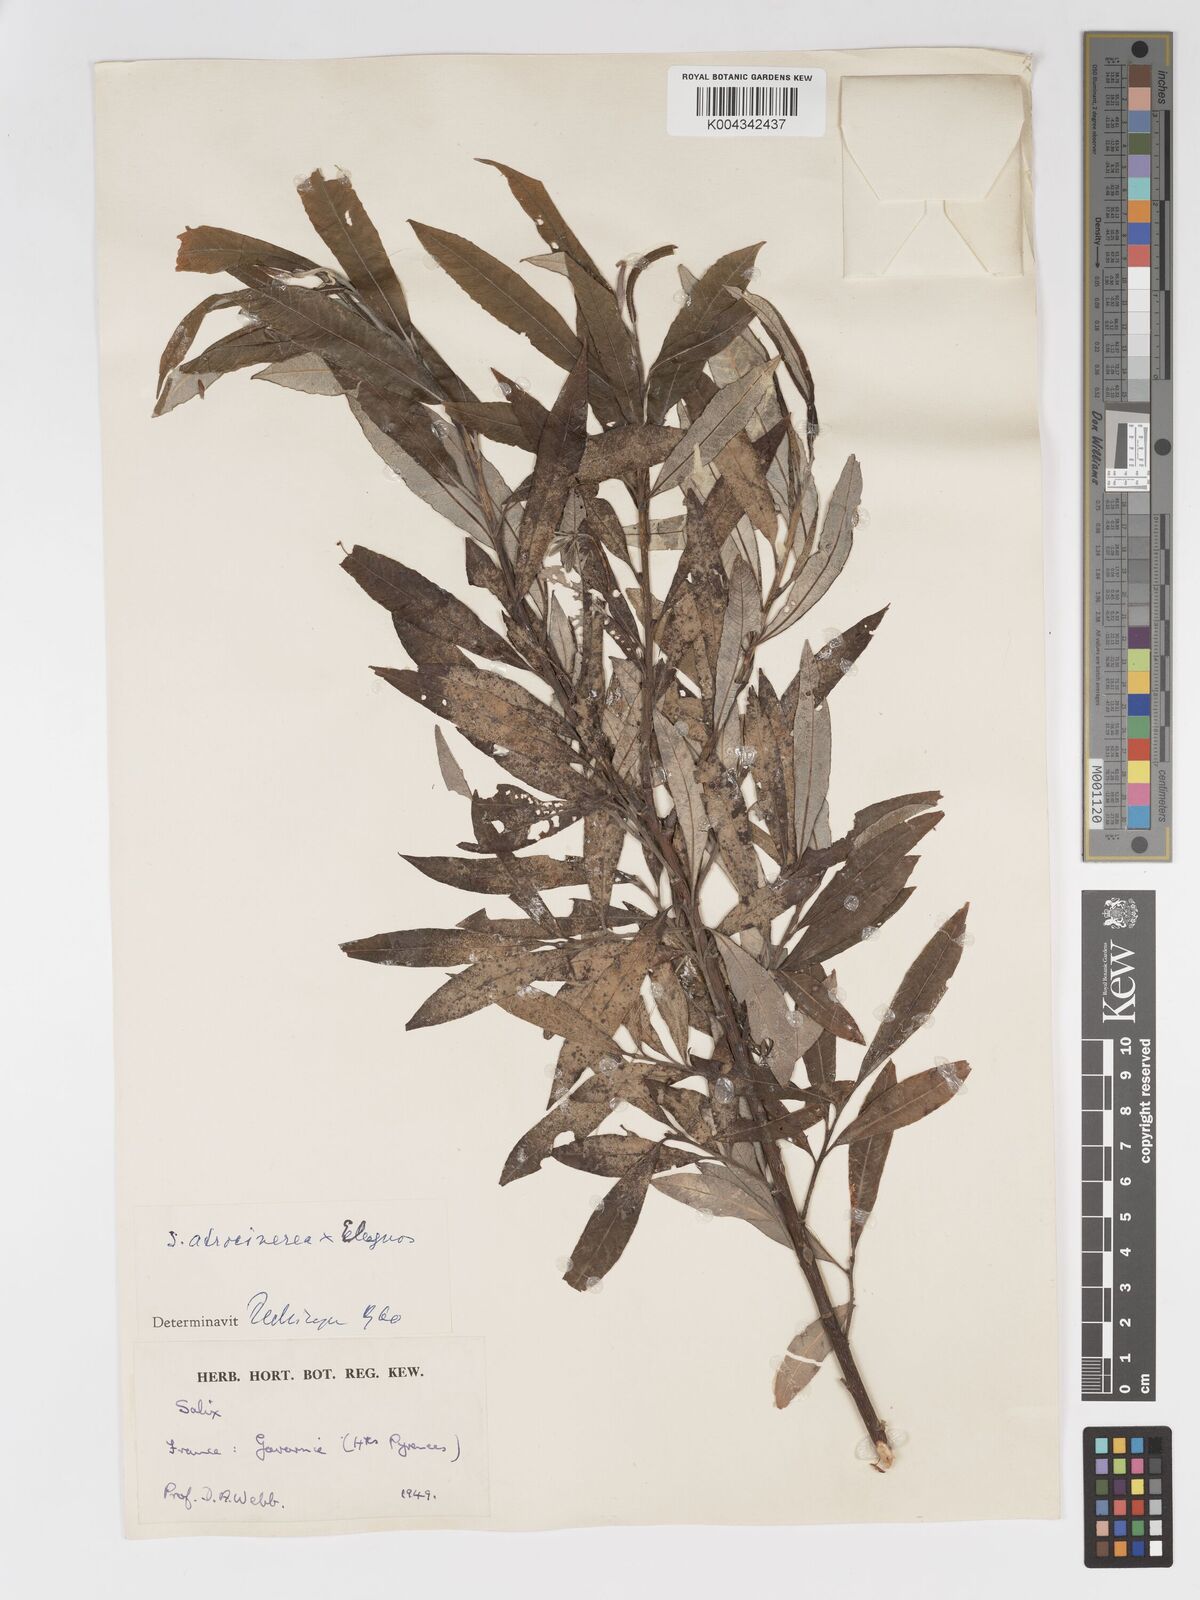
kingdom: Plantae
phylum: Tracheophyta
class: Magnoliopsida
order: Malpighiales
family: Salicaceae
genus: Salix
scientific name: Salix
